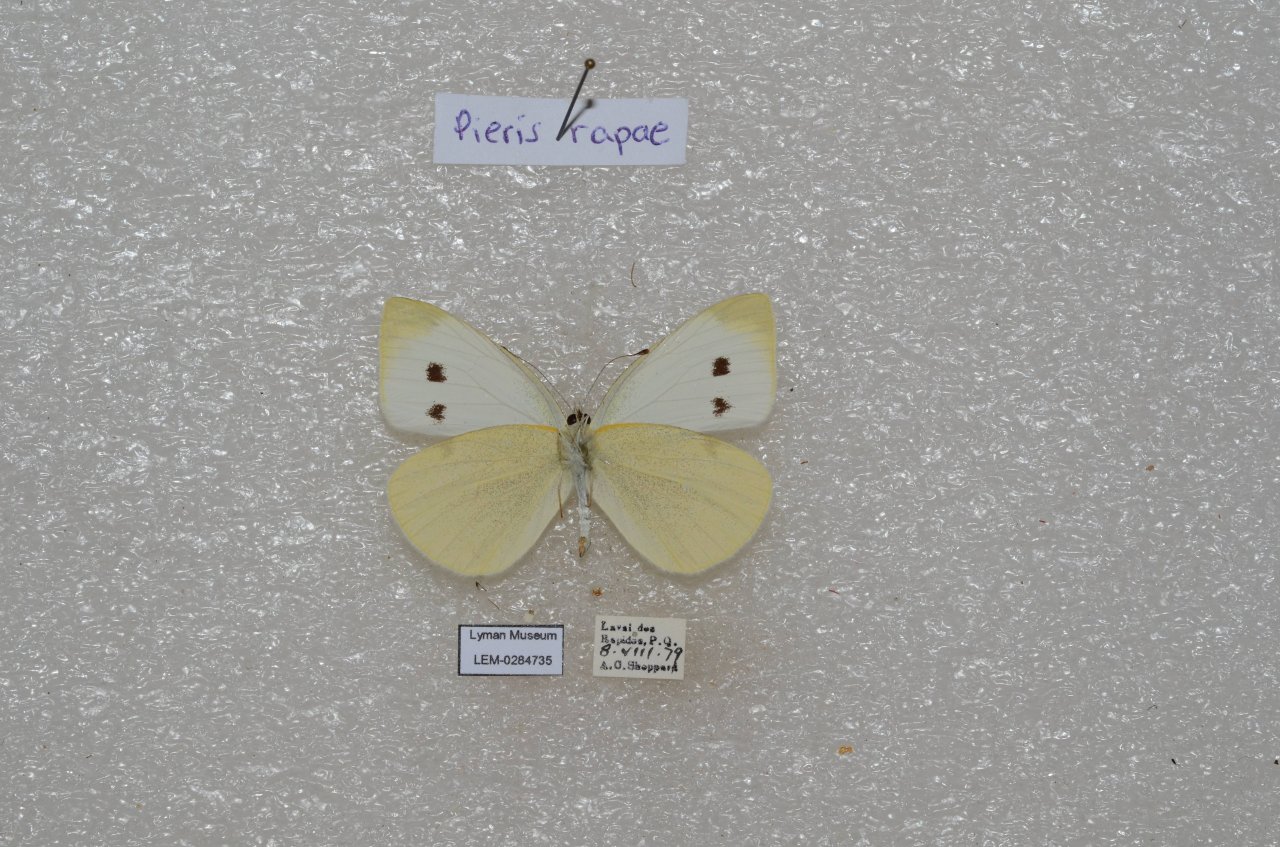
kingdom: Animalia
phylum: Arthropoda
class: Insecta
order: Lepidoptera
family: Pieridae
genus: Pieris
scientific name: Pieris rapae
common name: Cabbage White
